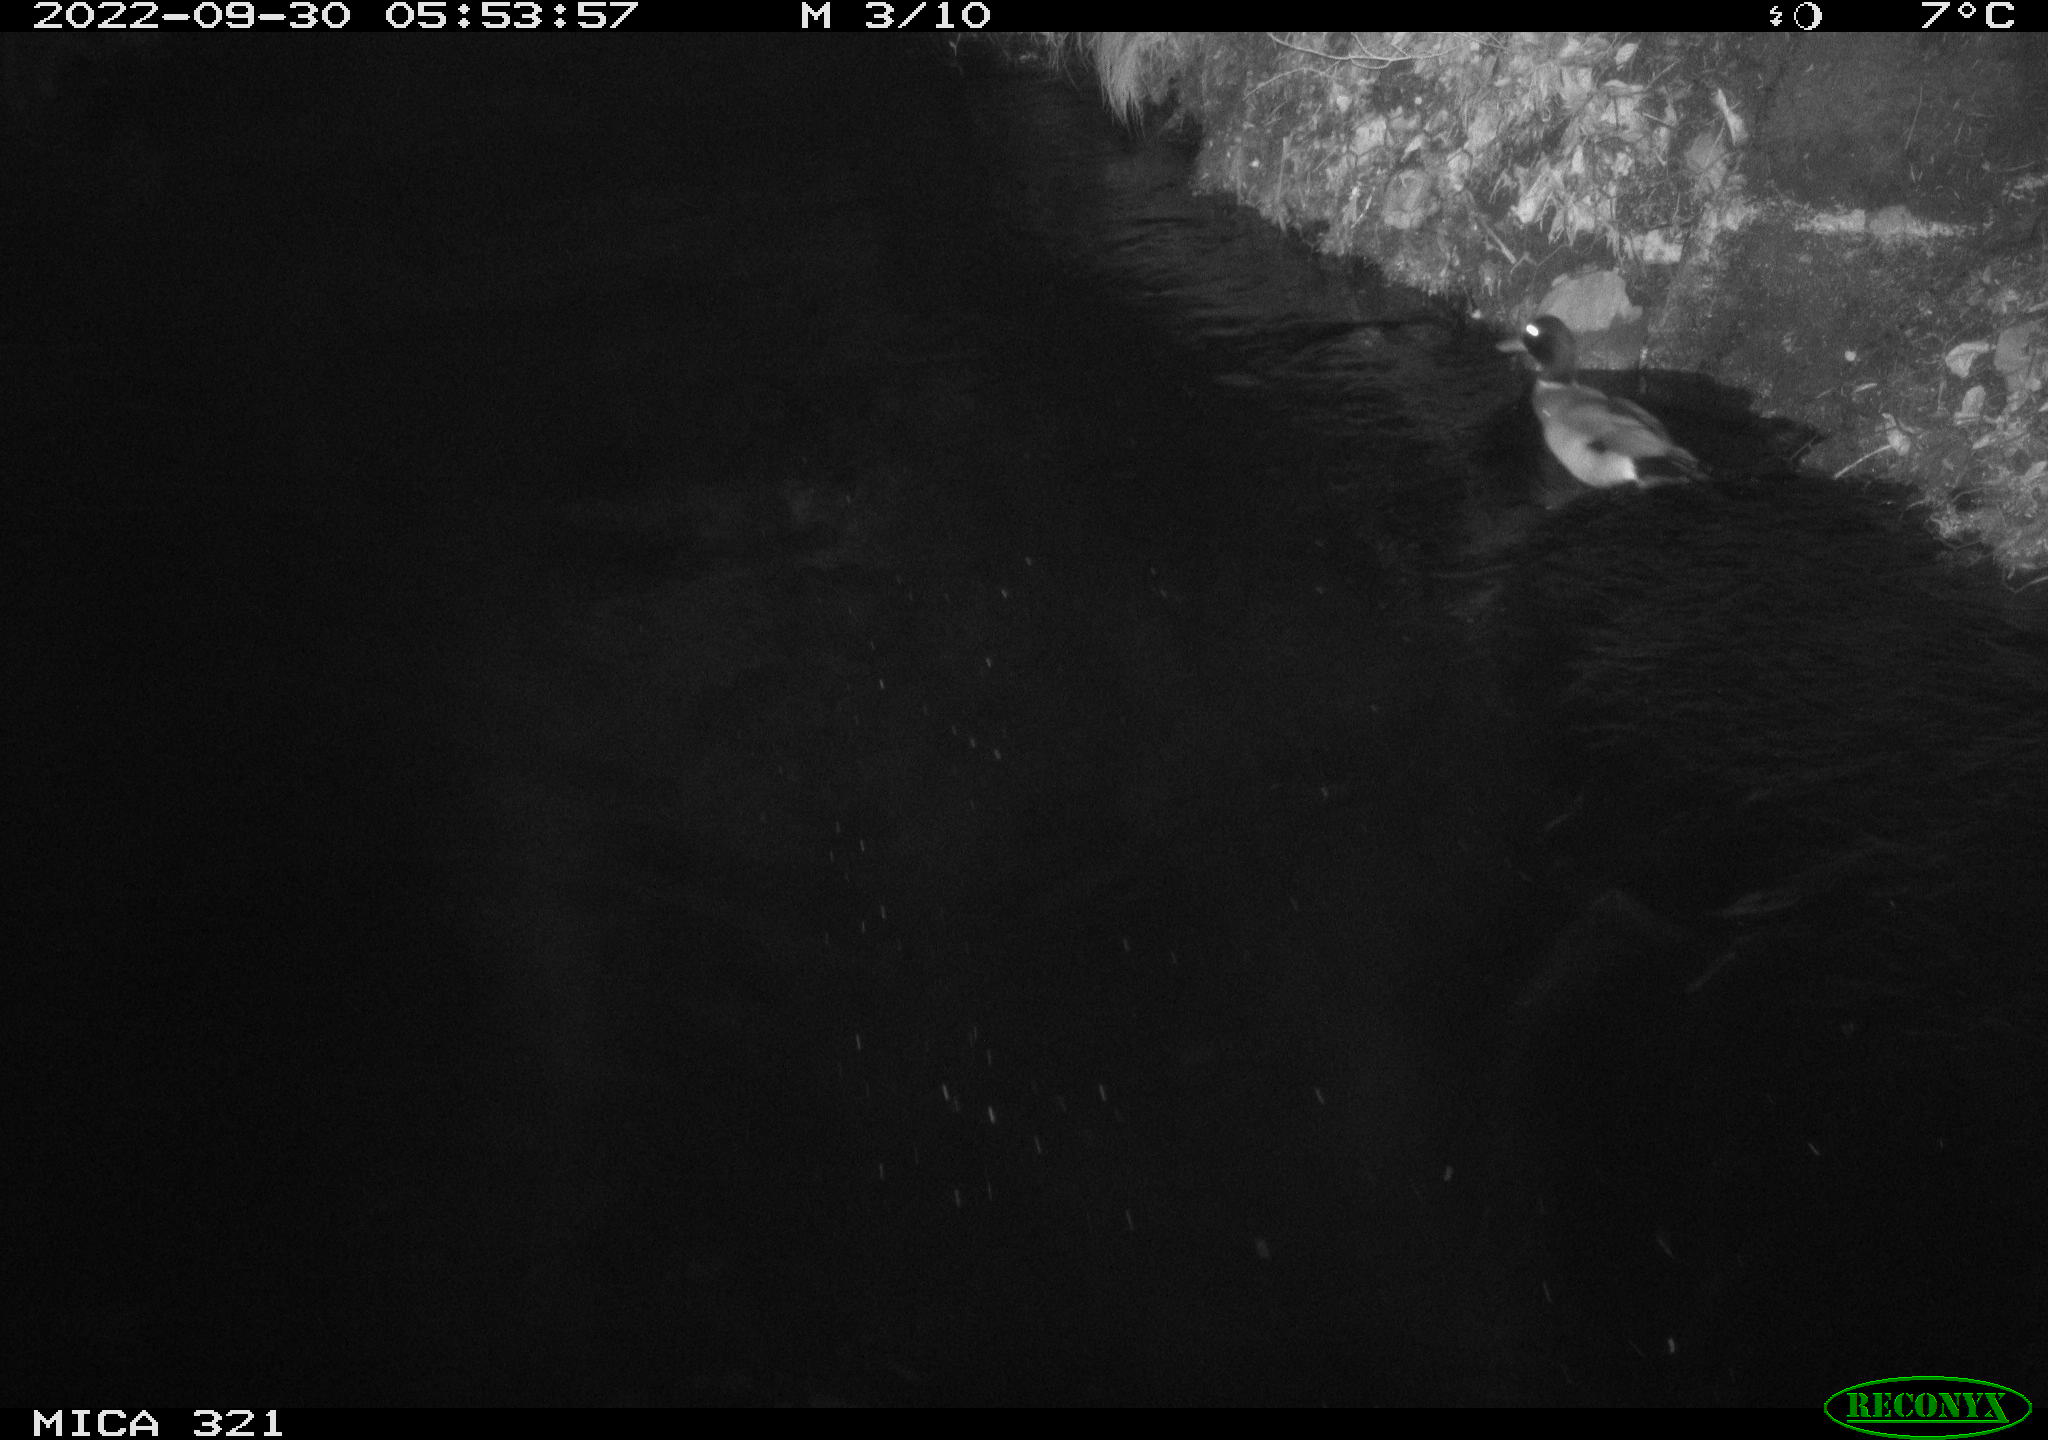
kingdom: Animalia
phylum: Chordata
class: Aves
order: Anseriformes
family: Anatidae
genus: Anas
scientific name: Anas
